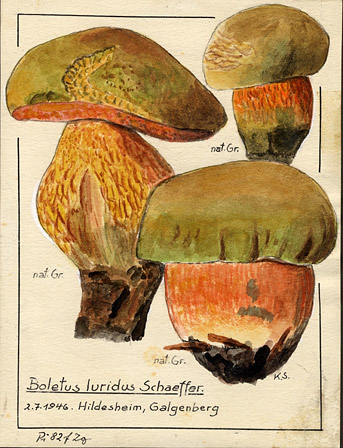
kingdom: Fungi
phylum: Basidiomycota
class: Agaricomycetes
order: Boletales
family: Boletaceae
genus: Suillellus
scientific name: Suillellus luridus
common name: Lurid bolete
